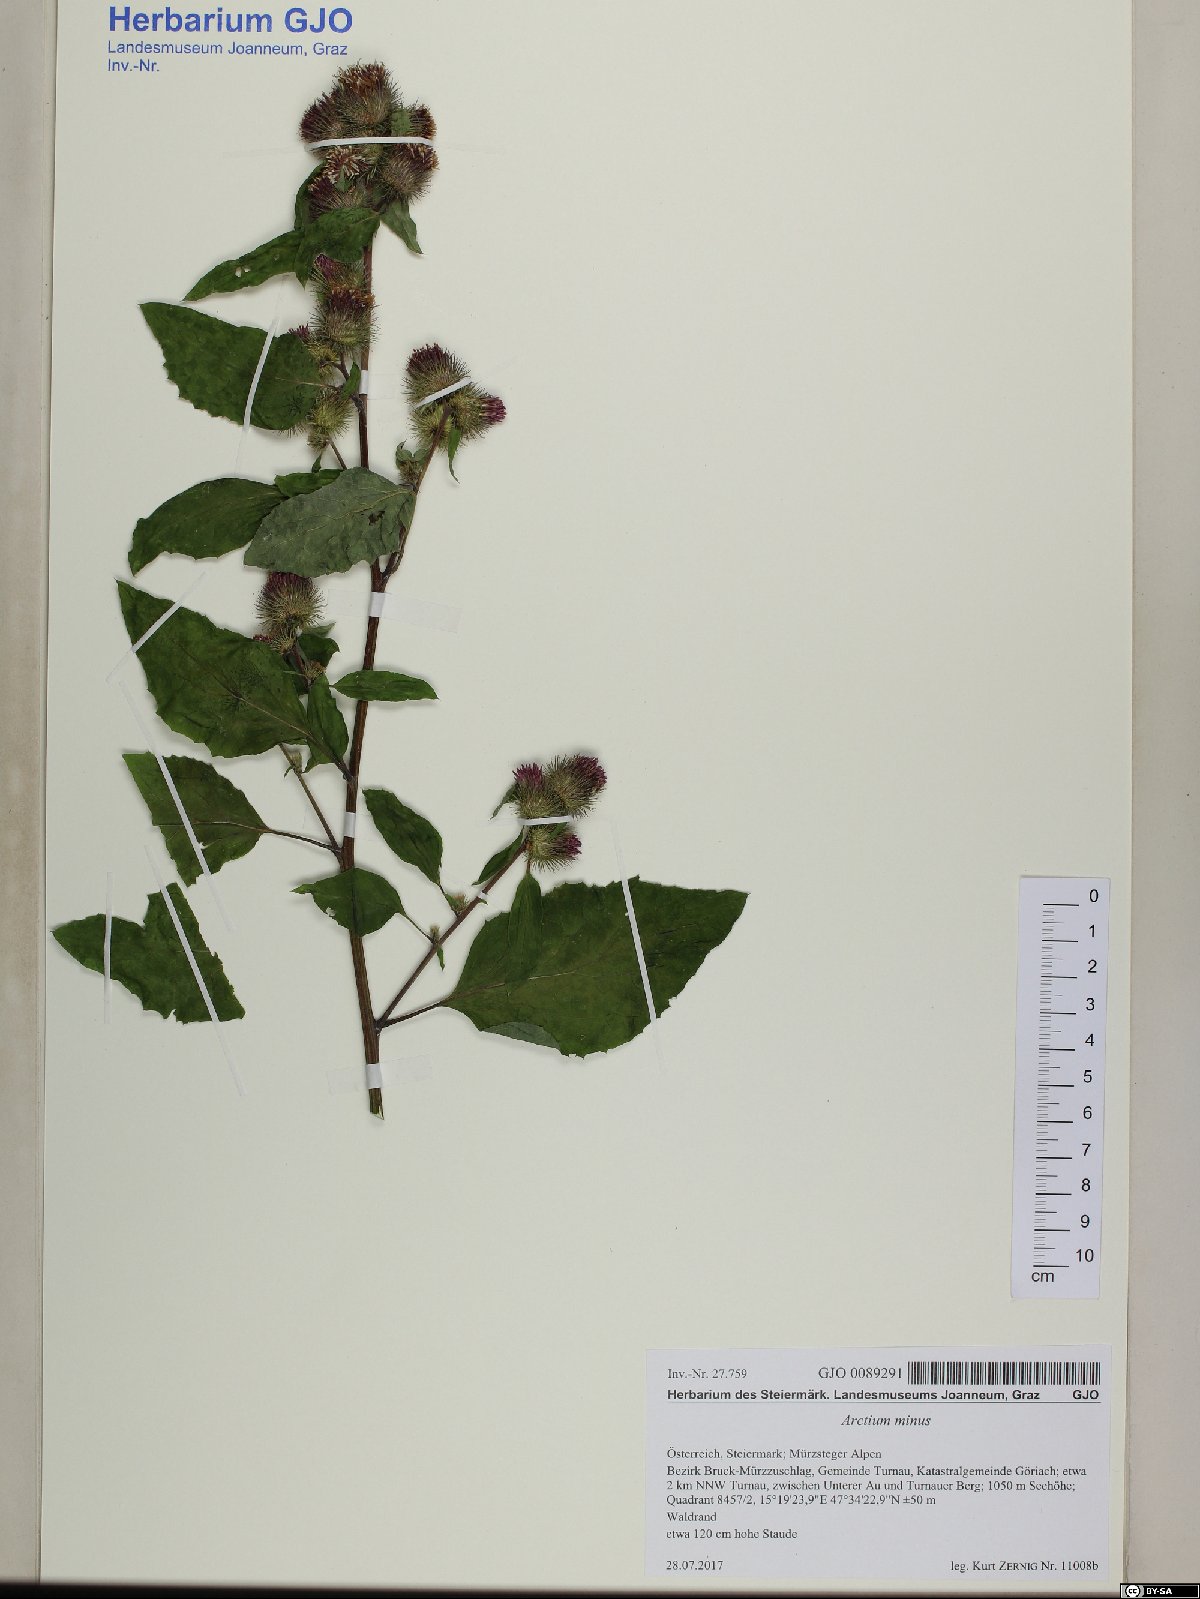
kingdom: Plantae
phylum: Tracheophyta
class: Magnoliopsida
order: Asterales
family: Asteraceae
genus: Arctium
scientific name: Arctium minus
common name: Lesser burdock
